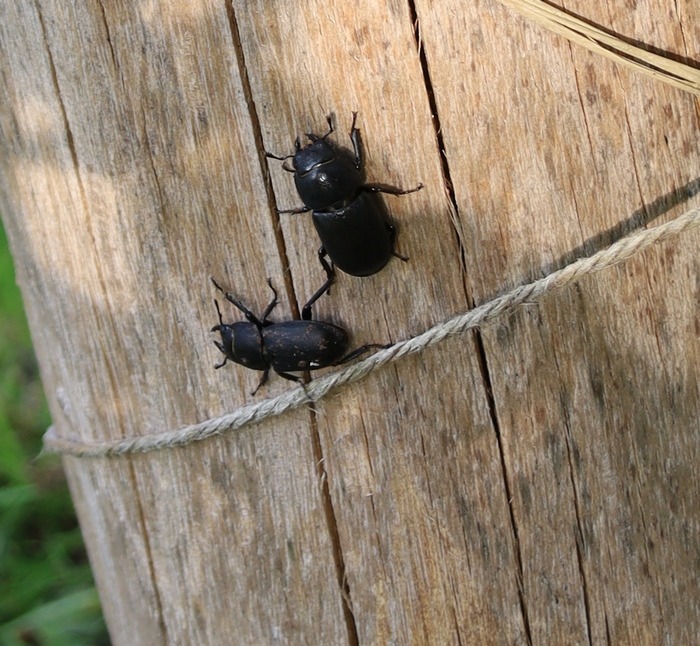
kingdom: Animalia
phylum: Arthropoda
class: Insecta
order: Coleoptera
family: Lucanidae
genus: Dorcus
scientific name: Dorcus parallelipipedus
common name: Bøghjort
